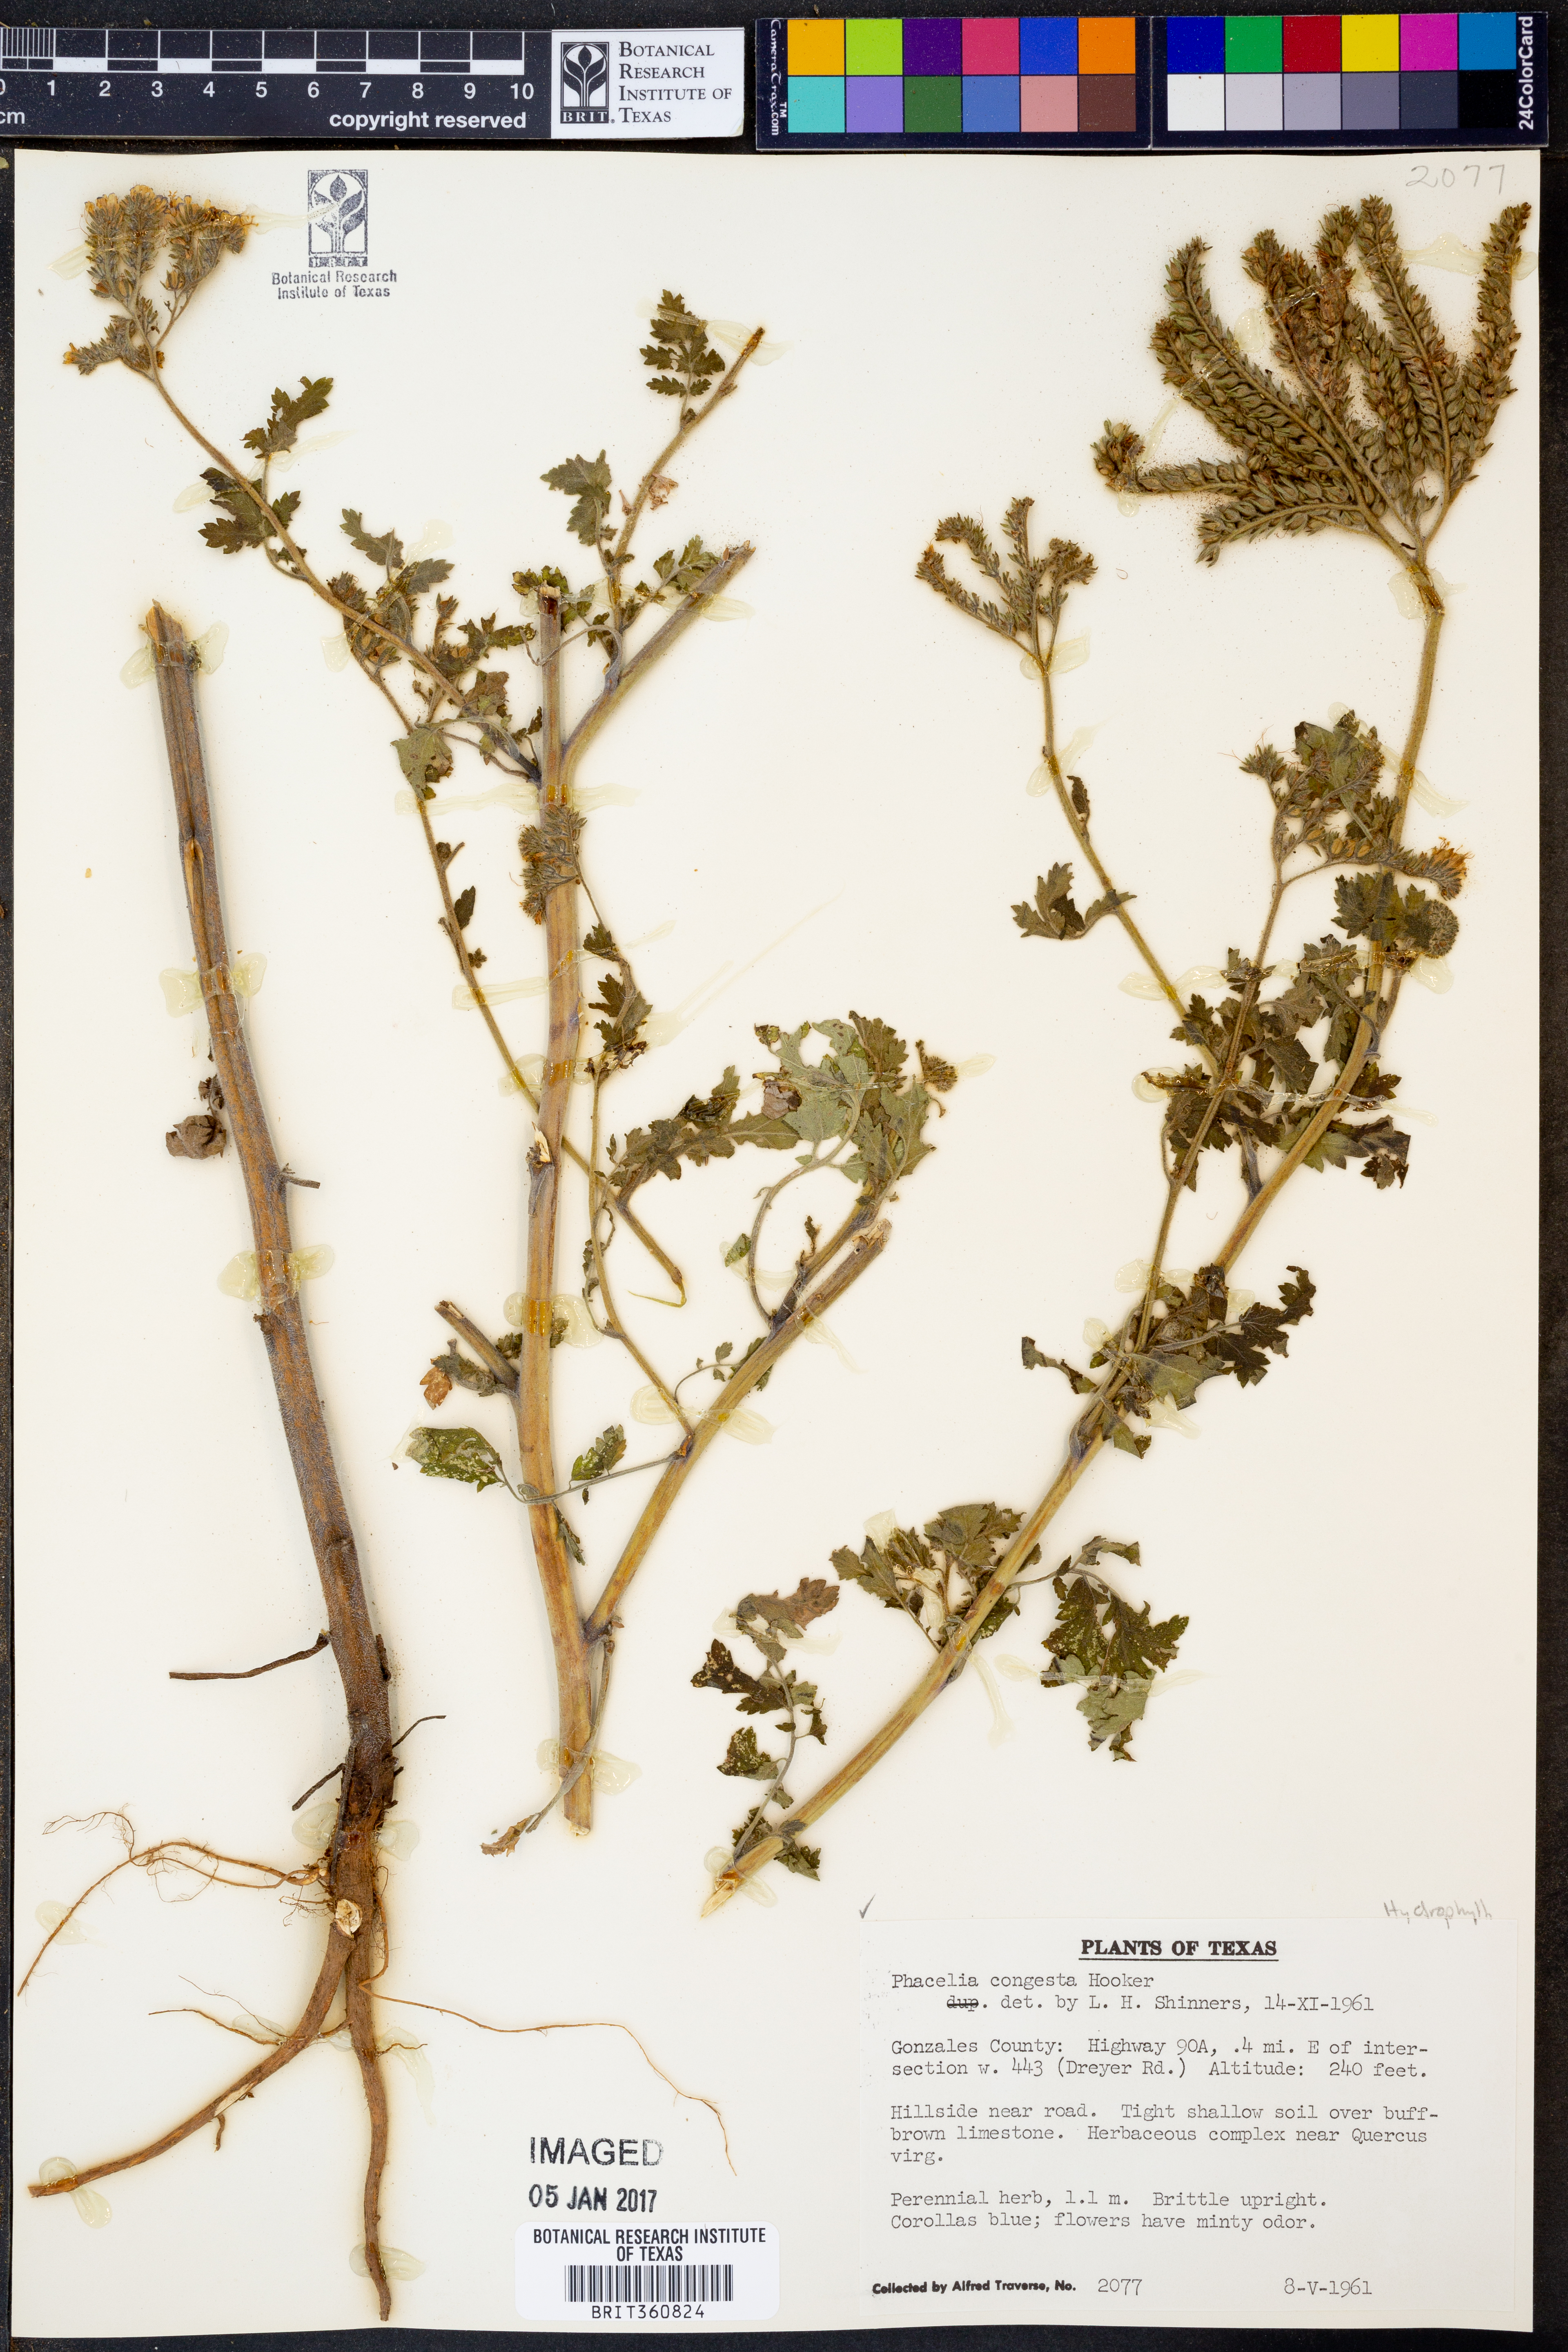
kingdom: Plantae
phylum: Tracheophyta
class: Magnoliopsida
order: Boraginales
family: Hydrophyllaceae
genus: Phacelia
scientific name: Phacelia congesta
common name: Blue curls
